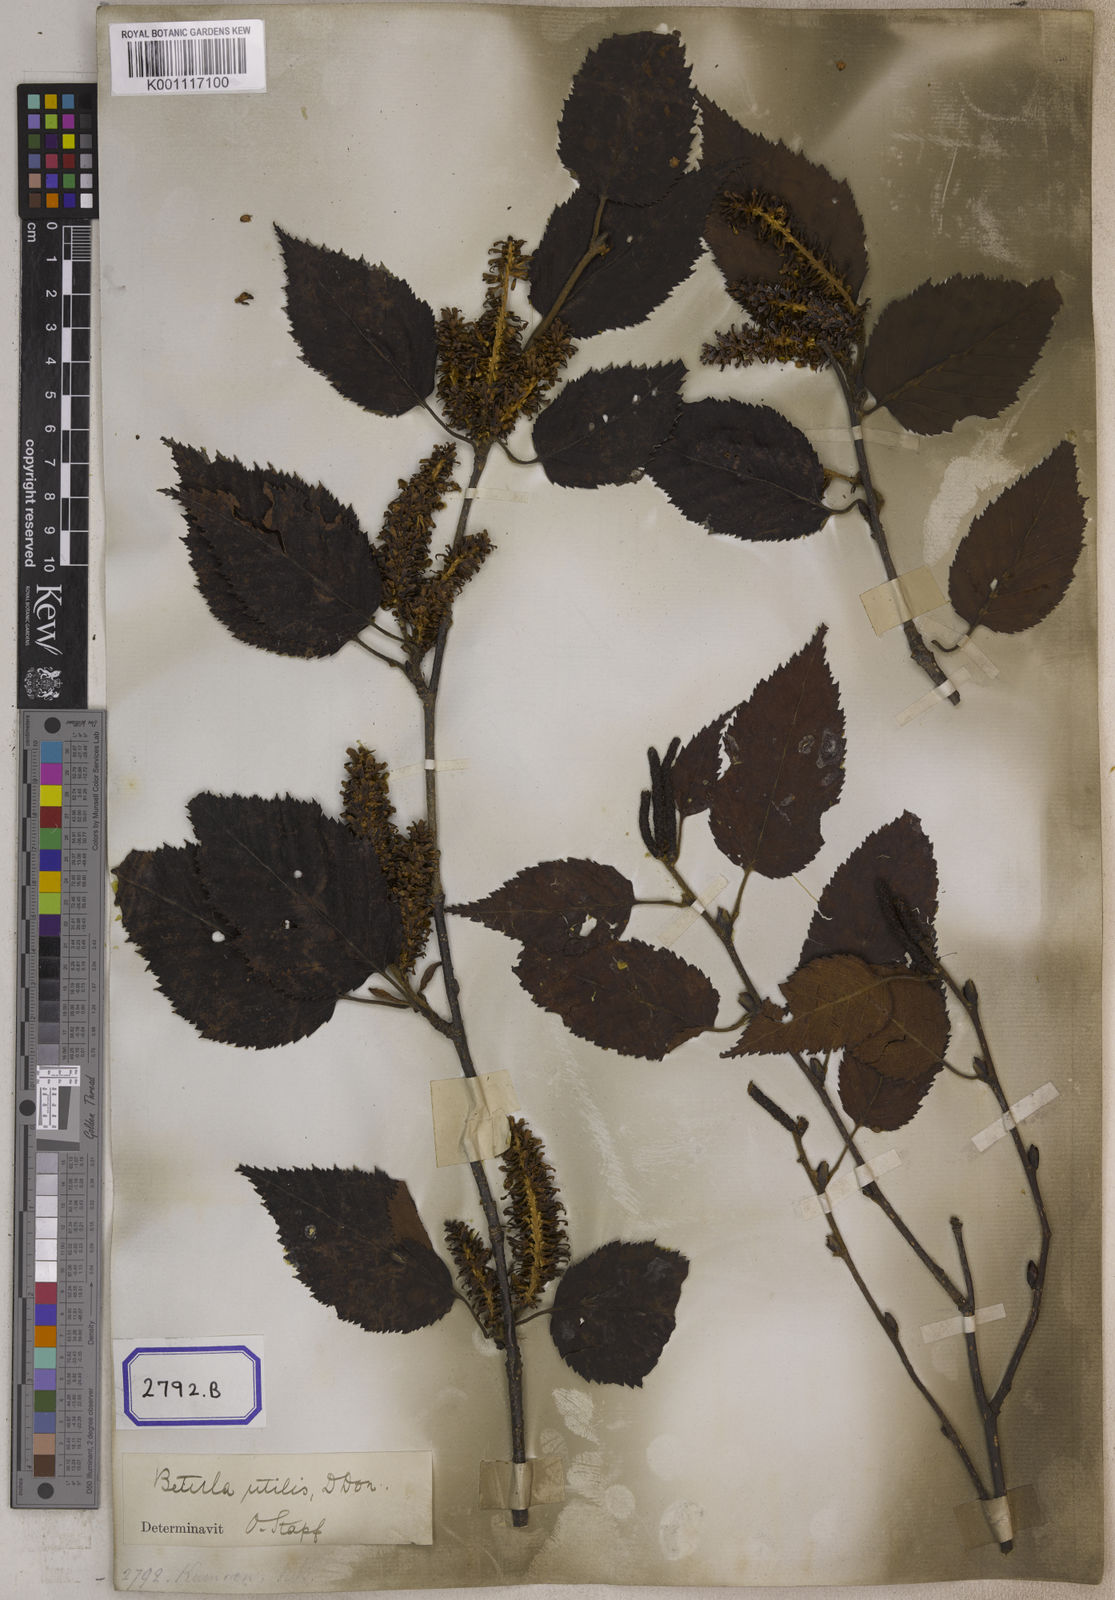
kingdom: Plantae
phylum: Tracheophyta
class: Magnoliopsida
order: Fagales
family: Betulaceae
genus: Betula
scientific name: Betula utilis
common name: Himalayan birch
